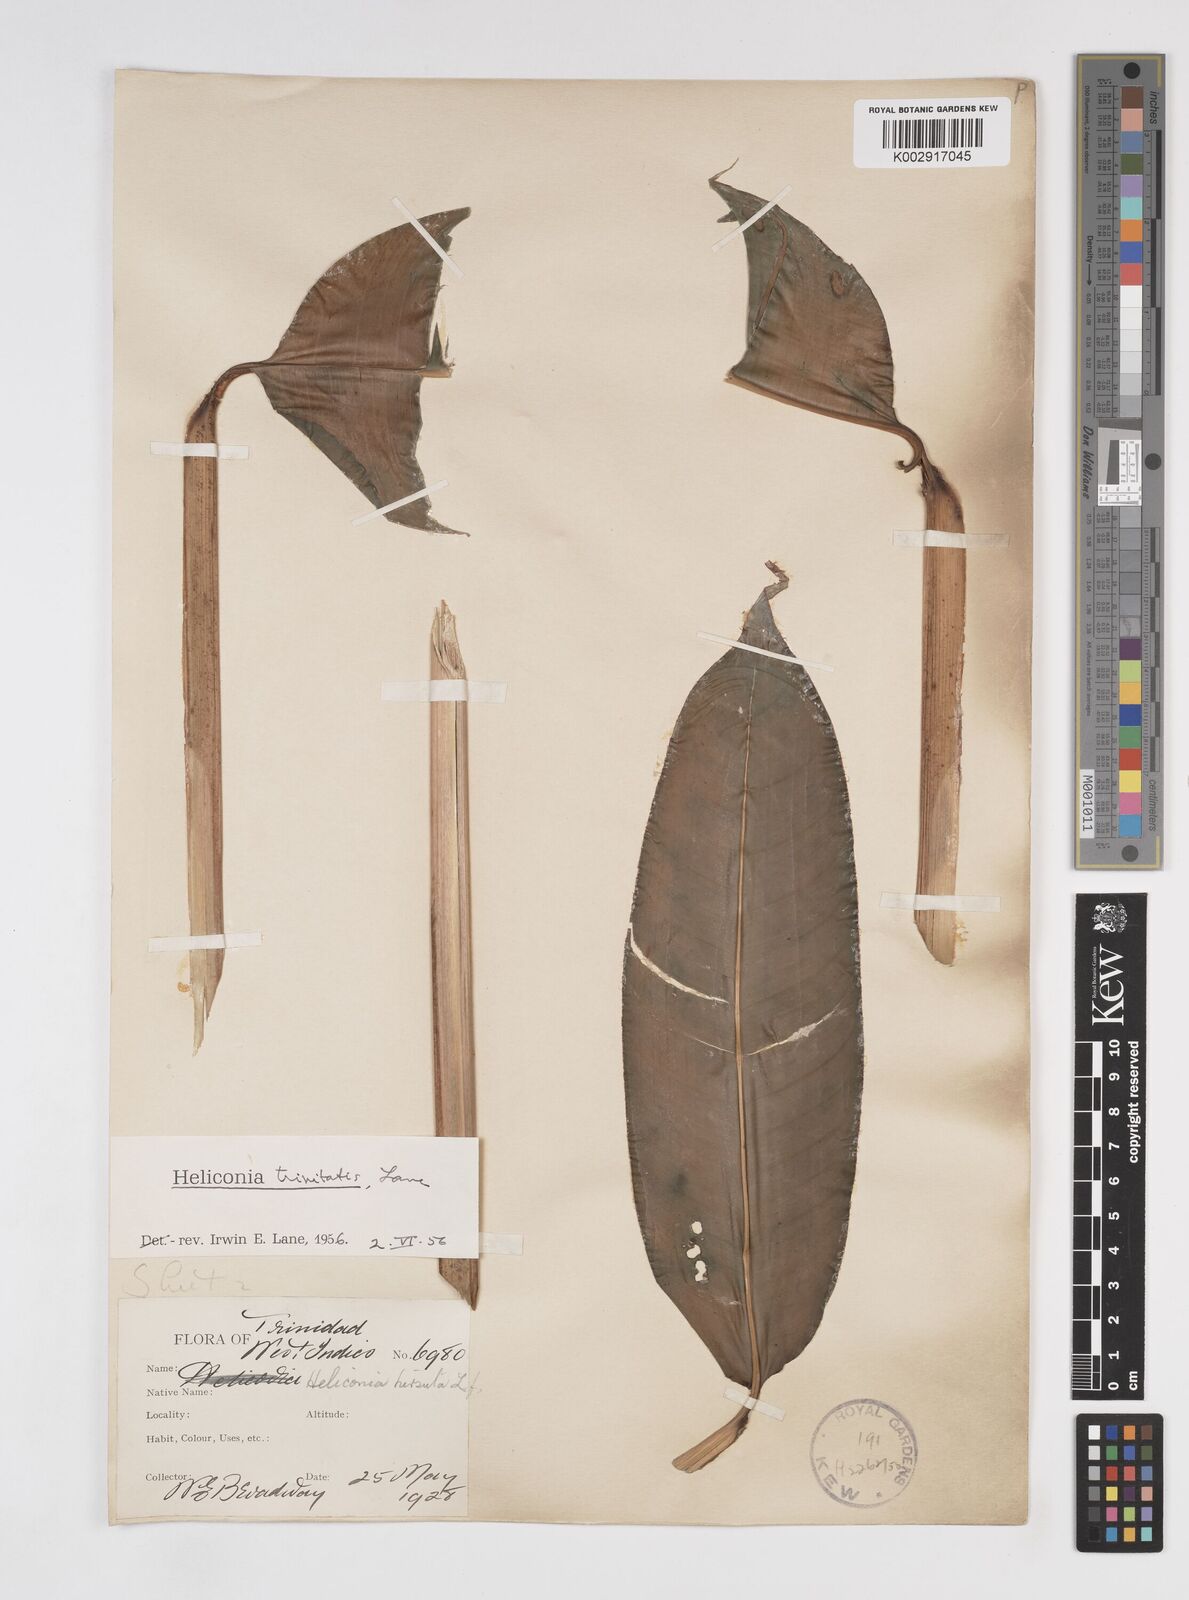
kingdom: Plantae
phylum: Tracheophyta
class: Liliopsida
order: Zingiberales
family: Heliconiaceae
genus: Heliconia
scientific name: Heliconia hirsuta
